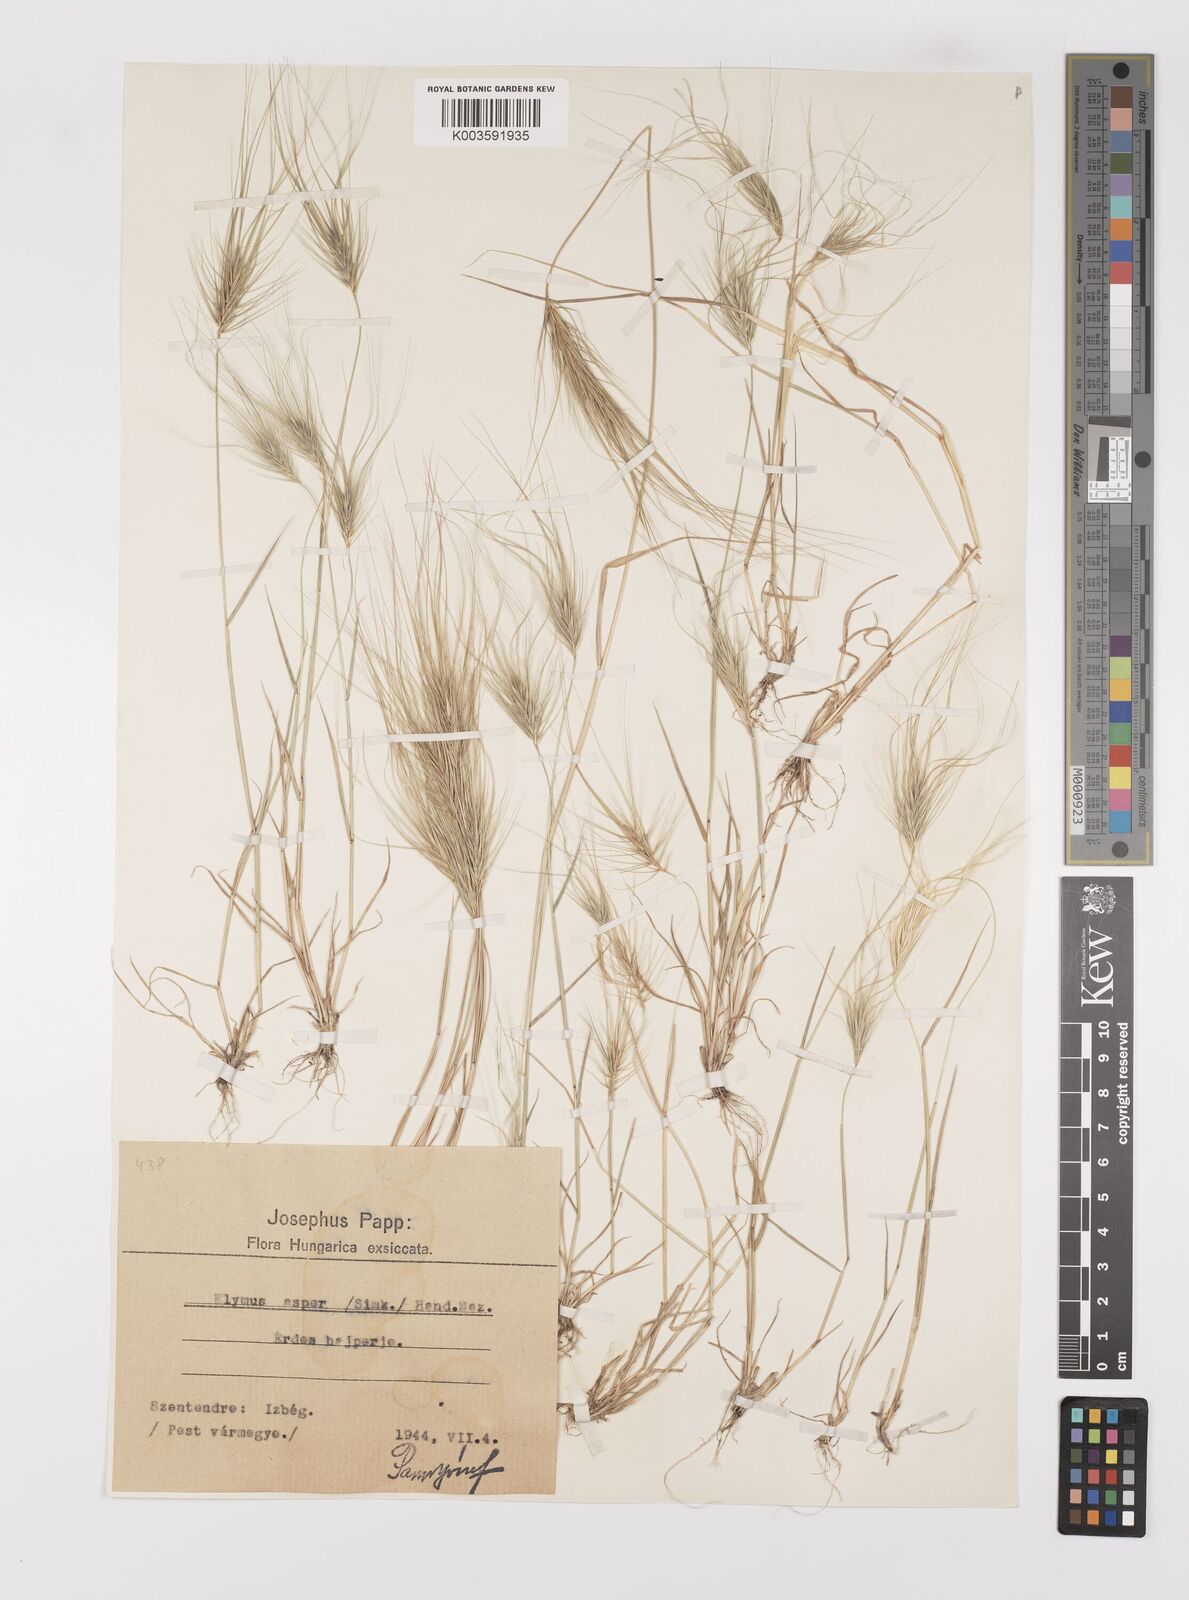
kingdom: Plantae
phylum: Tracheophyta
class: Liliopsida
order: Poales
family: Poaceae
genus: Taeniatherum
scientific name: Taeniatherum caput-medusae
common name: Medusahead
